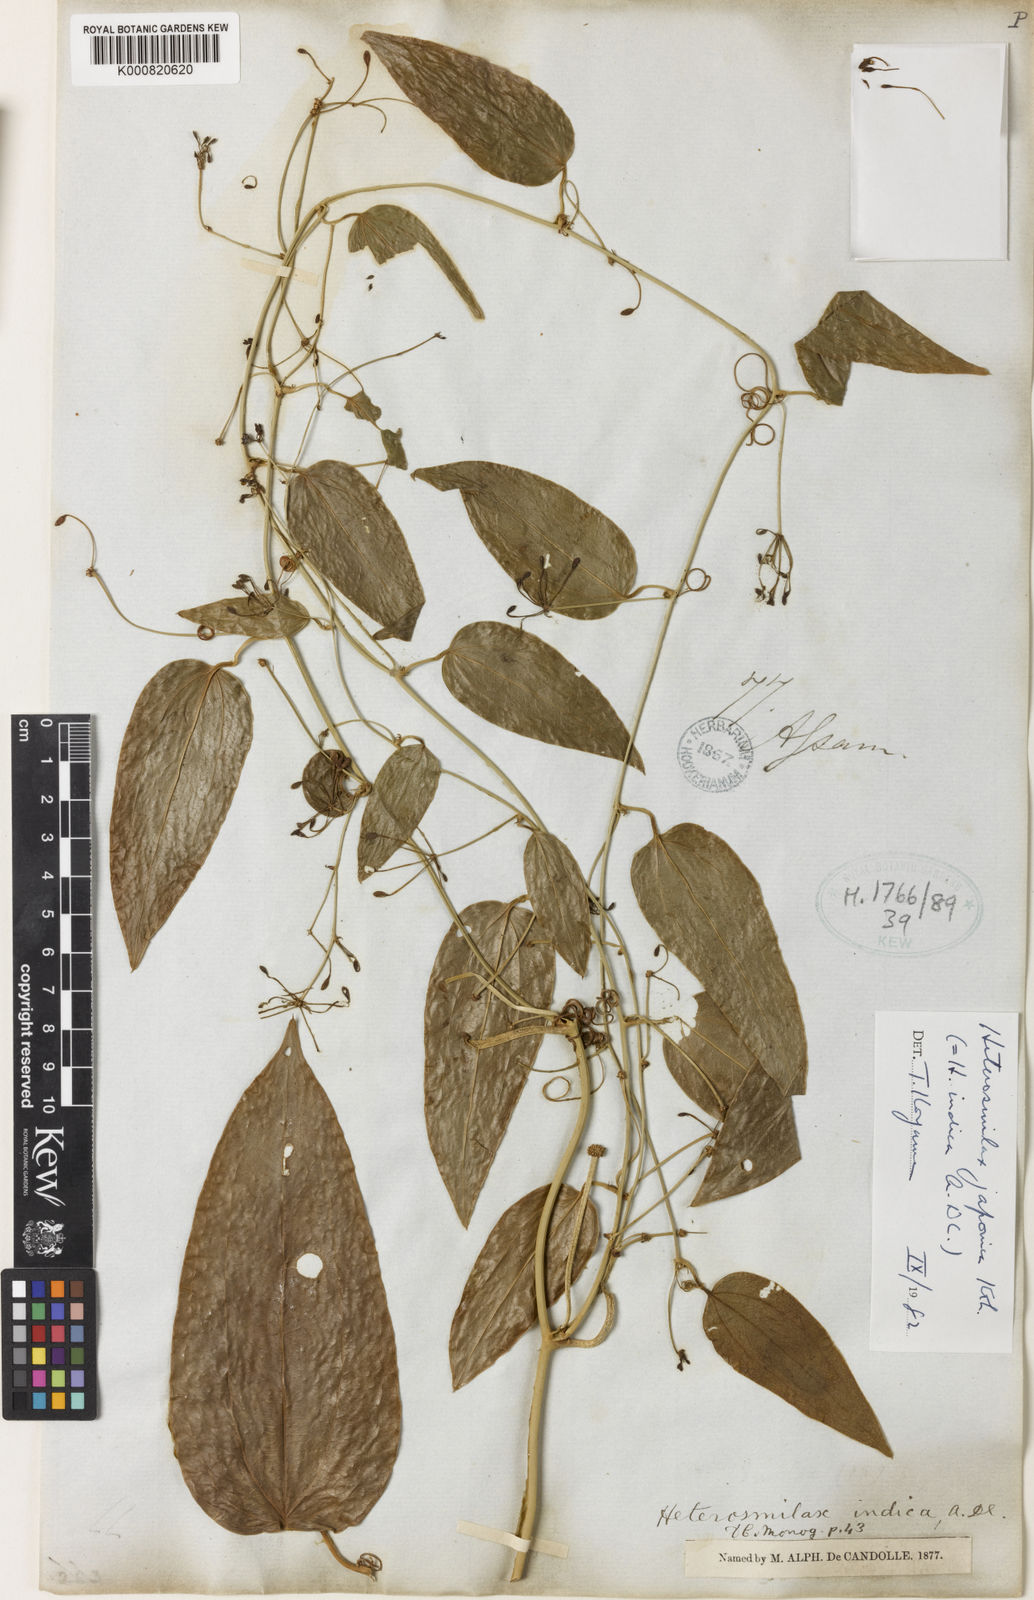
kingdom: Plantae
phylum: Tracheophyta
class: Liliopsida
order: Liliales
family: Smilacaceae
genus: Smilax
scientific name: Smilax bockii
